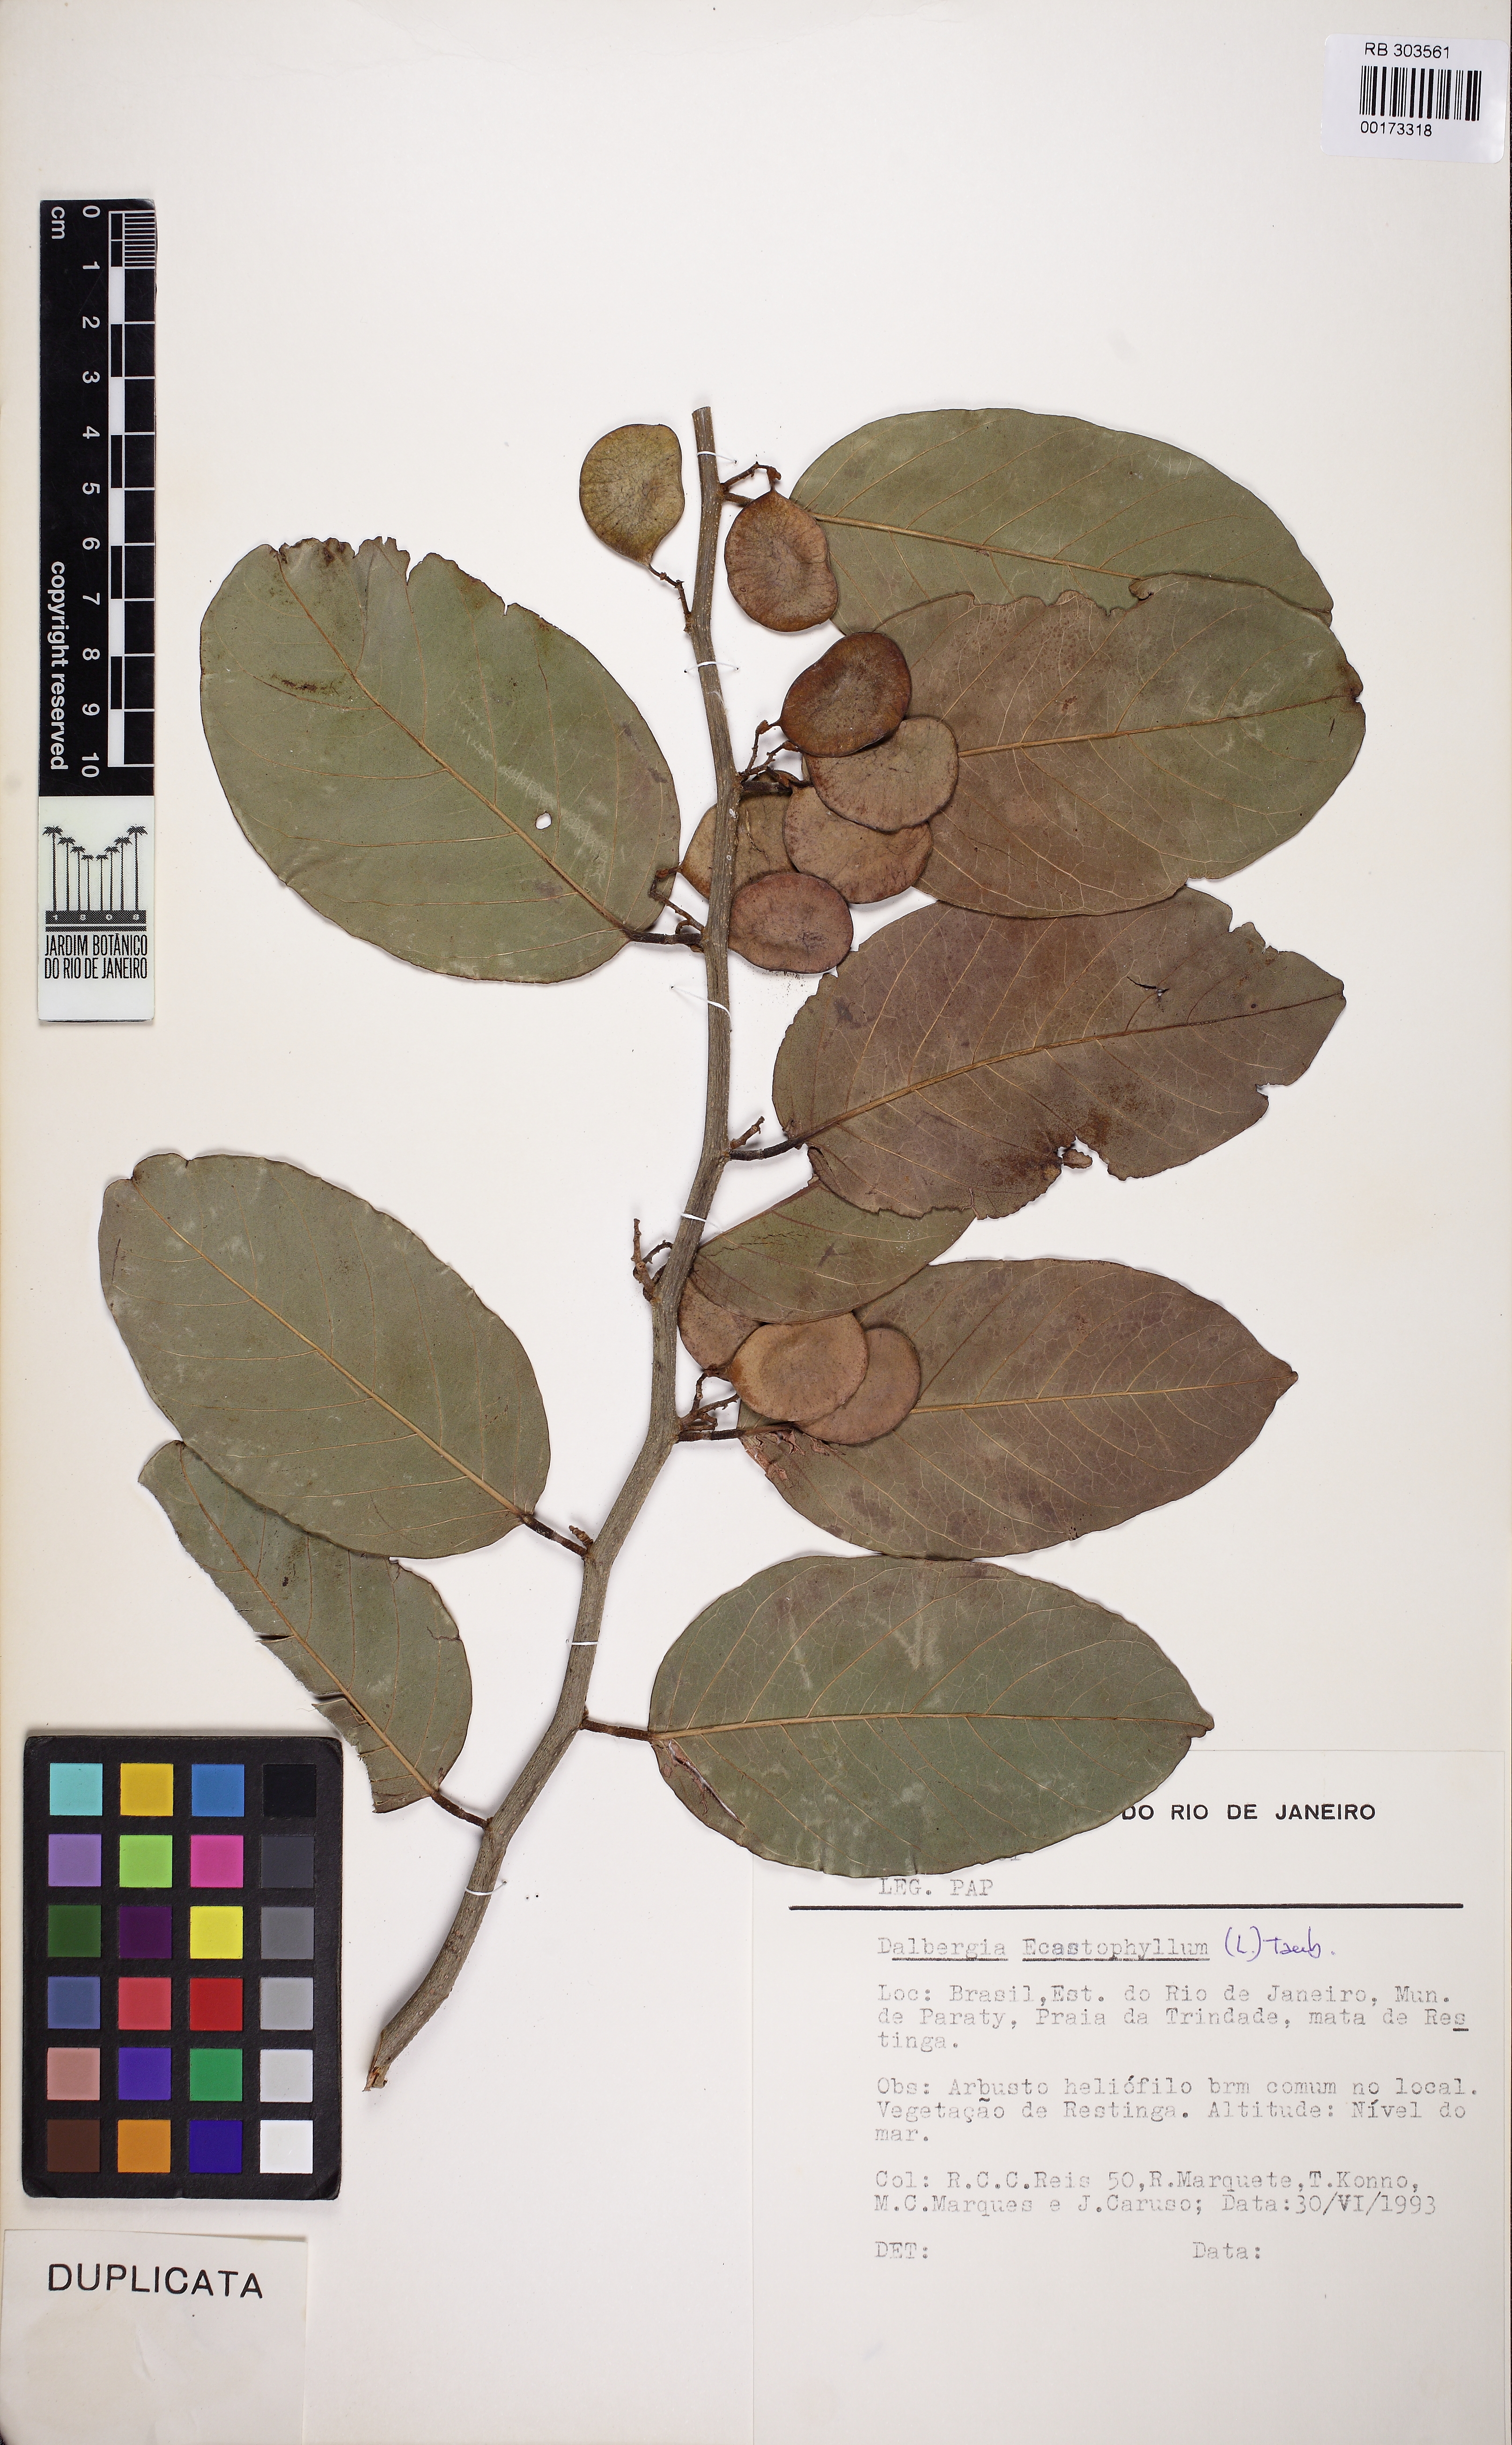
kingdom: Plantae
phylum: Tracheophyta
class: Magnoliopsida
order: Fabales
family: Fabaceae
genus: Dalbergia
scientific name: Dalbergia ecastaphyllum
